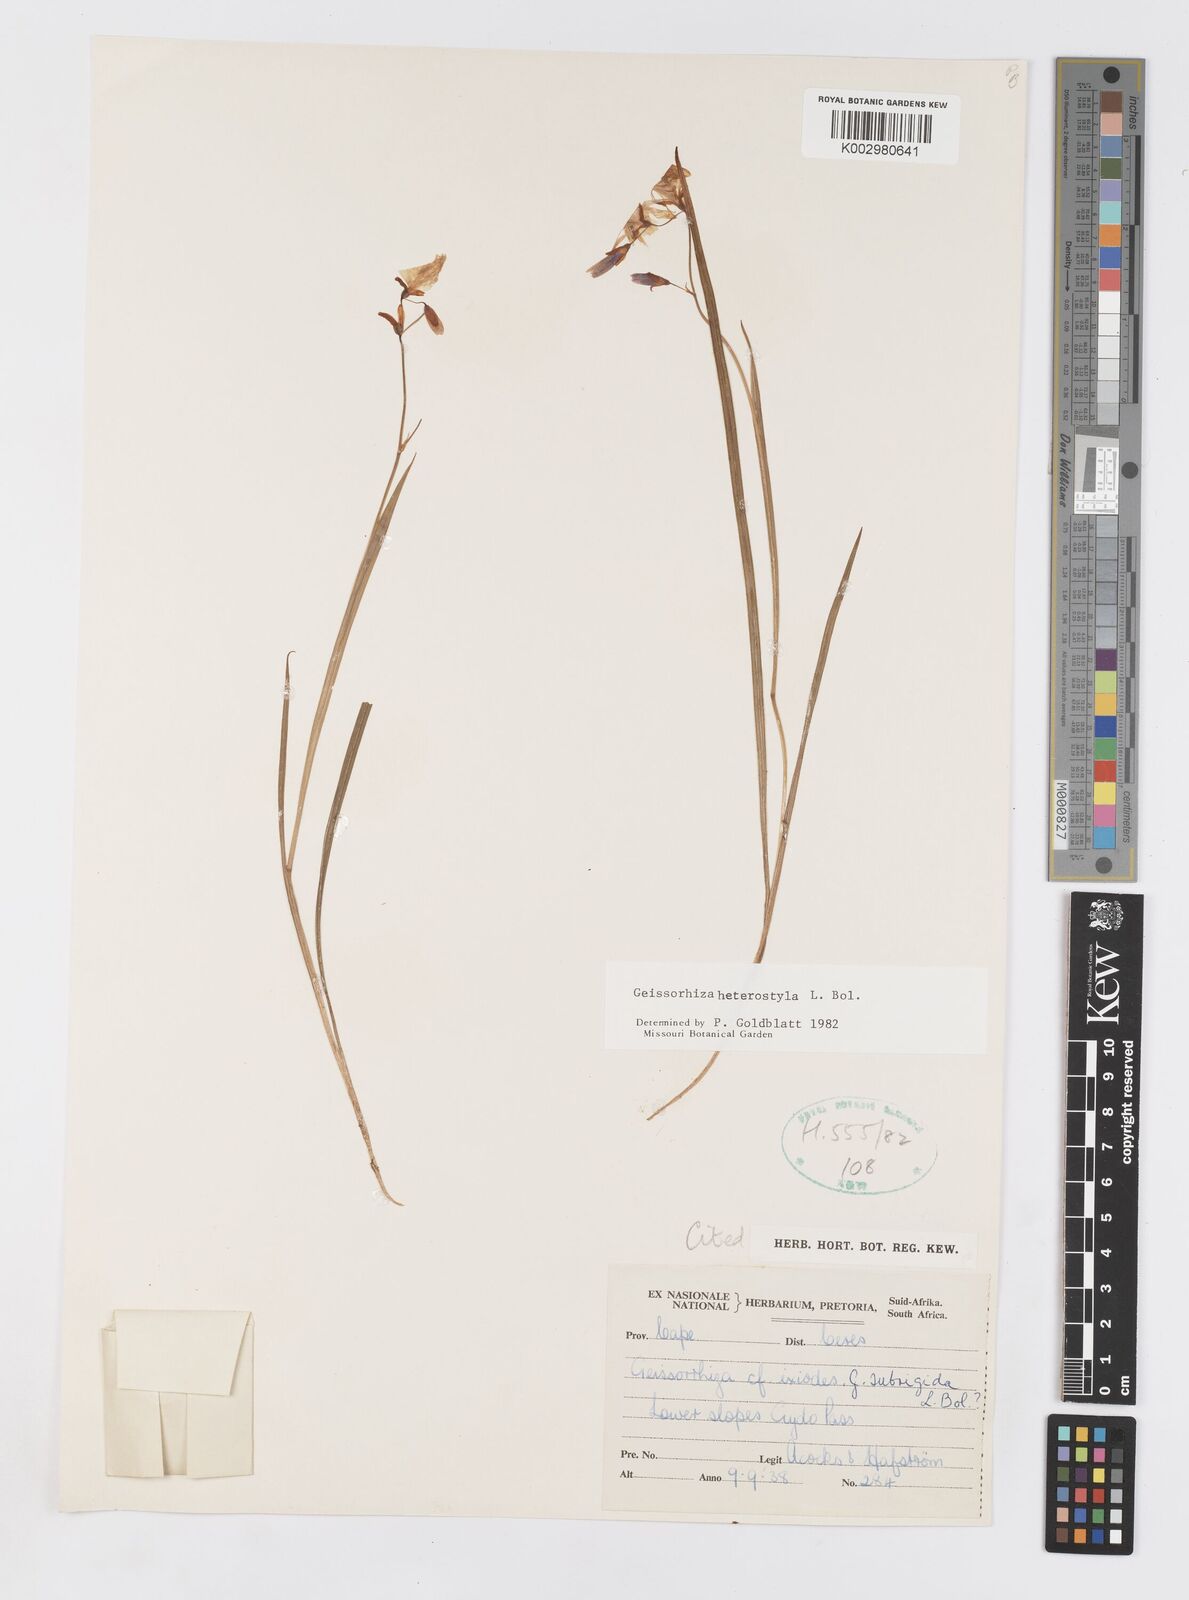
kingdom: Plantae
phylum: Tracheophyta
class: Liliopsida
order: Asparagales
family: Iridaceae
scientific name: Iridaceae
